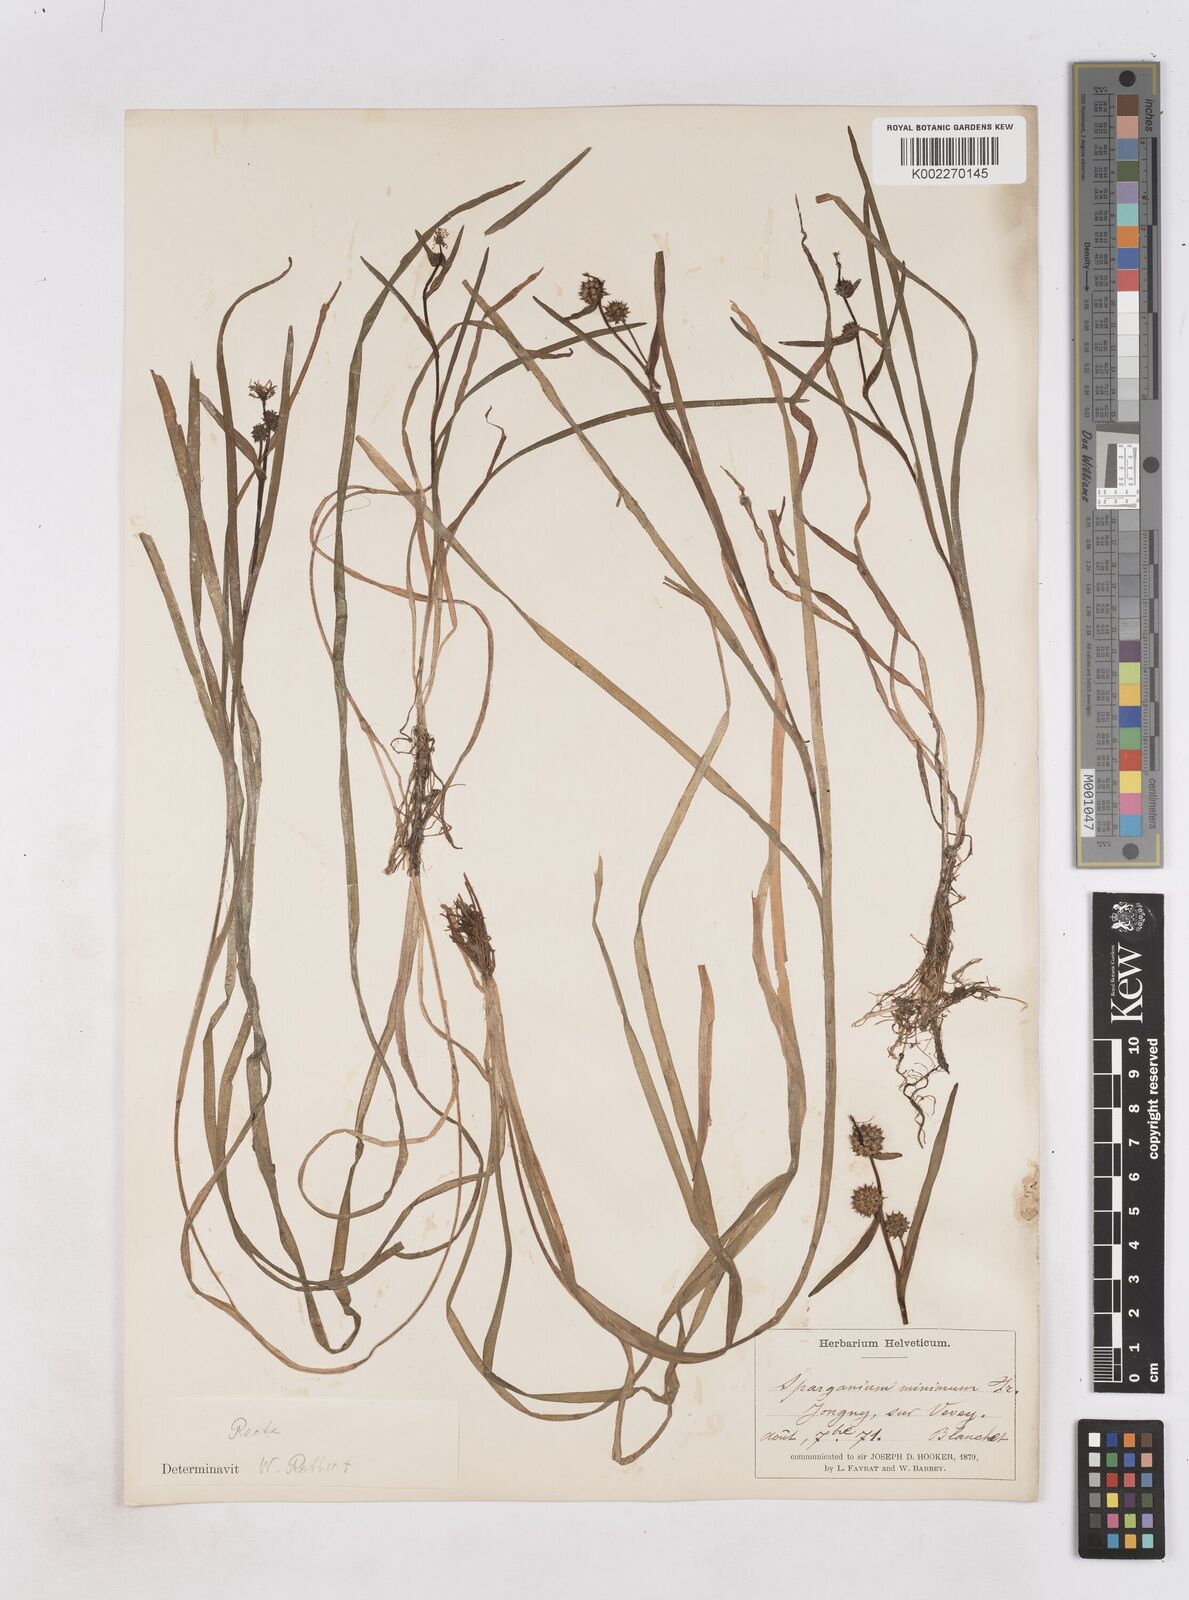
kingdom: Plantae
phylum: Tracheophyta
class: Liliopsida
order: Poales
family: Typhaceae
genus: Sparganium
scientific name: Sparganium natans
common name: Least bur-reed
